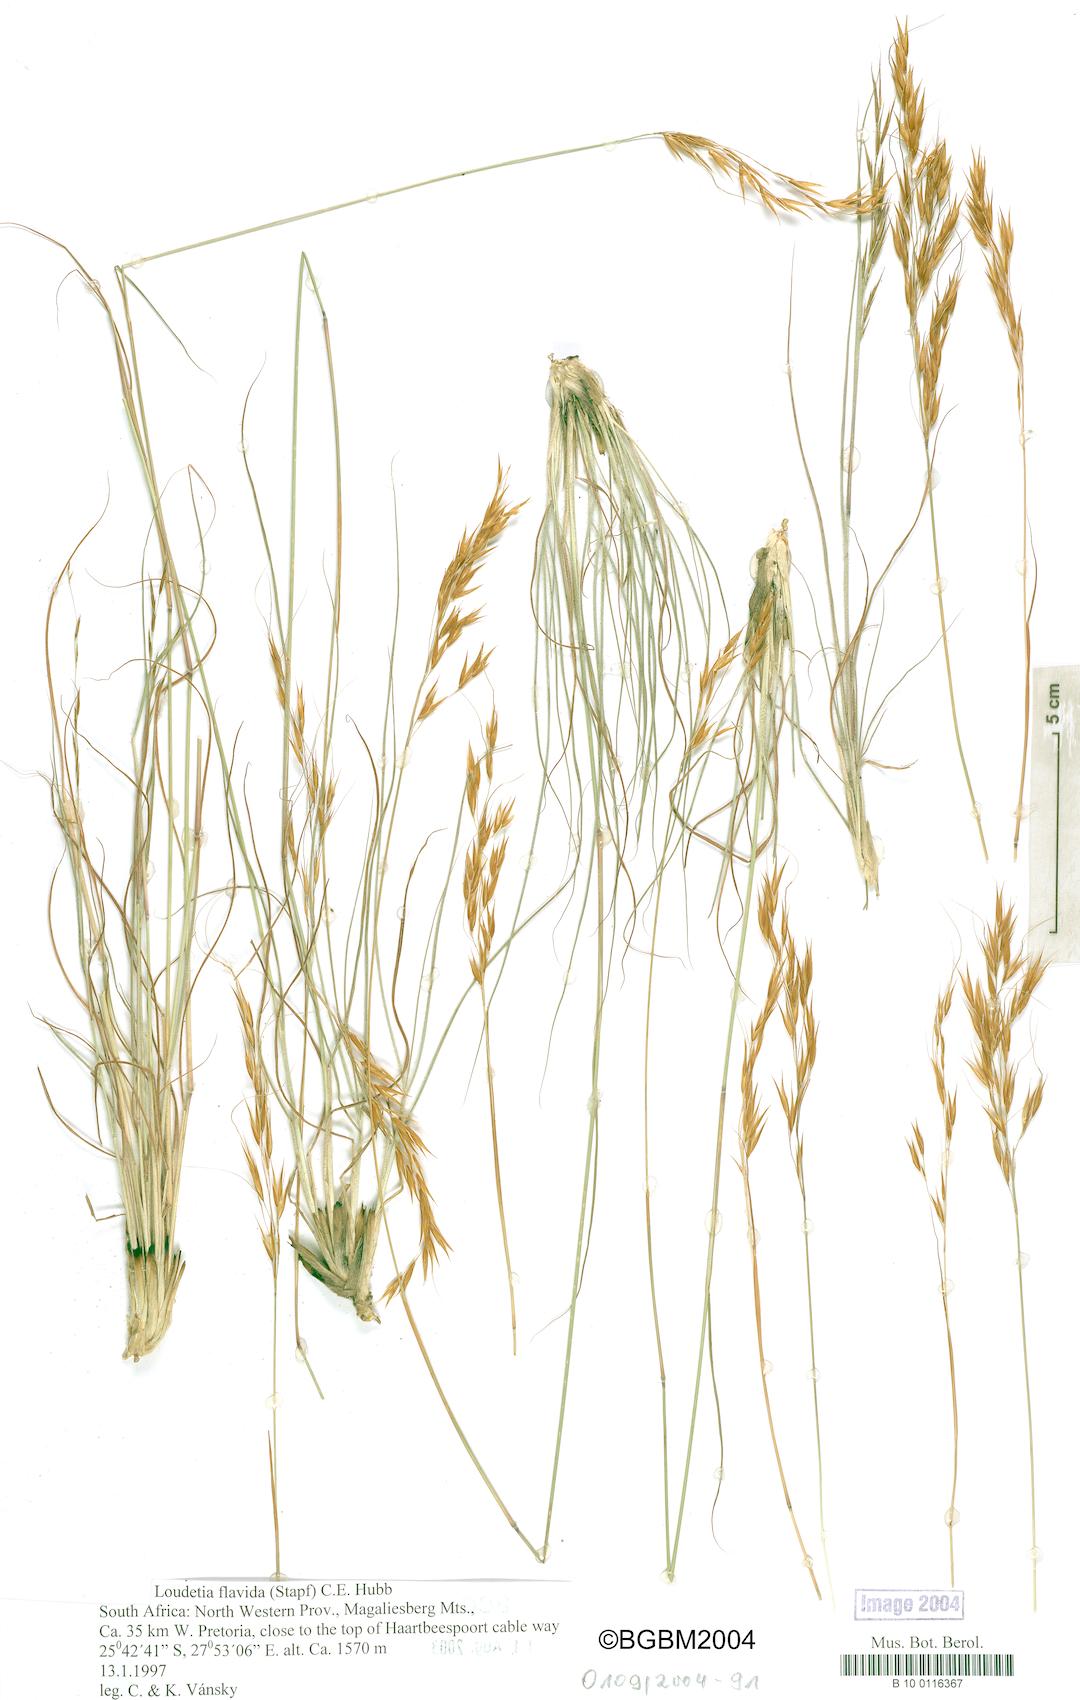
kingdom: Plantae
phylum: Tracheophyta
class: Liliopsida
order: Poales
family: Poaceae
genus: Loudetia
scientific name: Loudetia flavida
